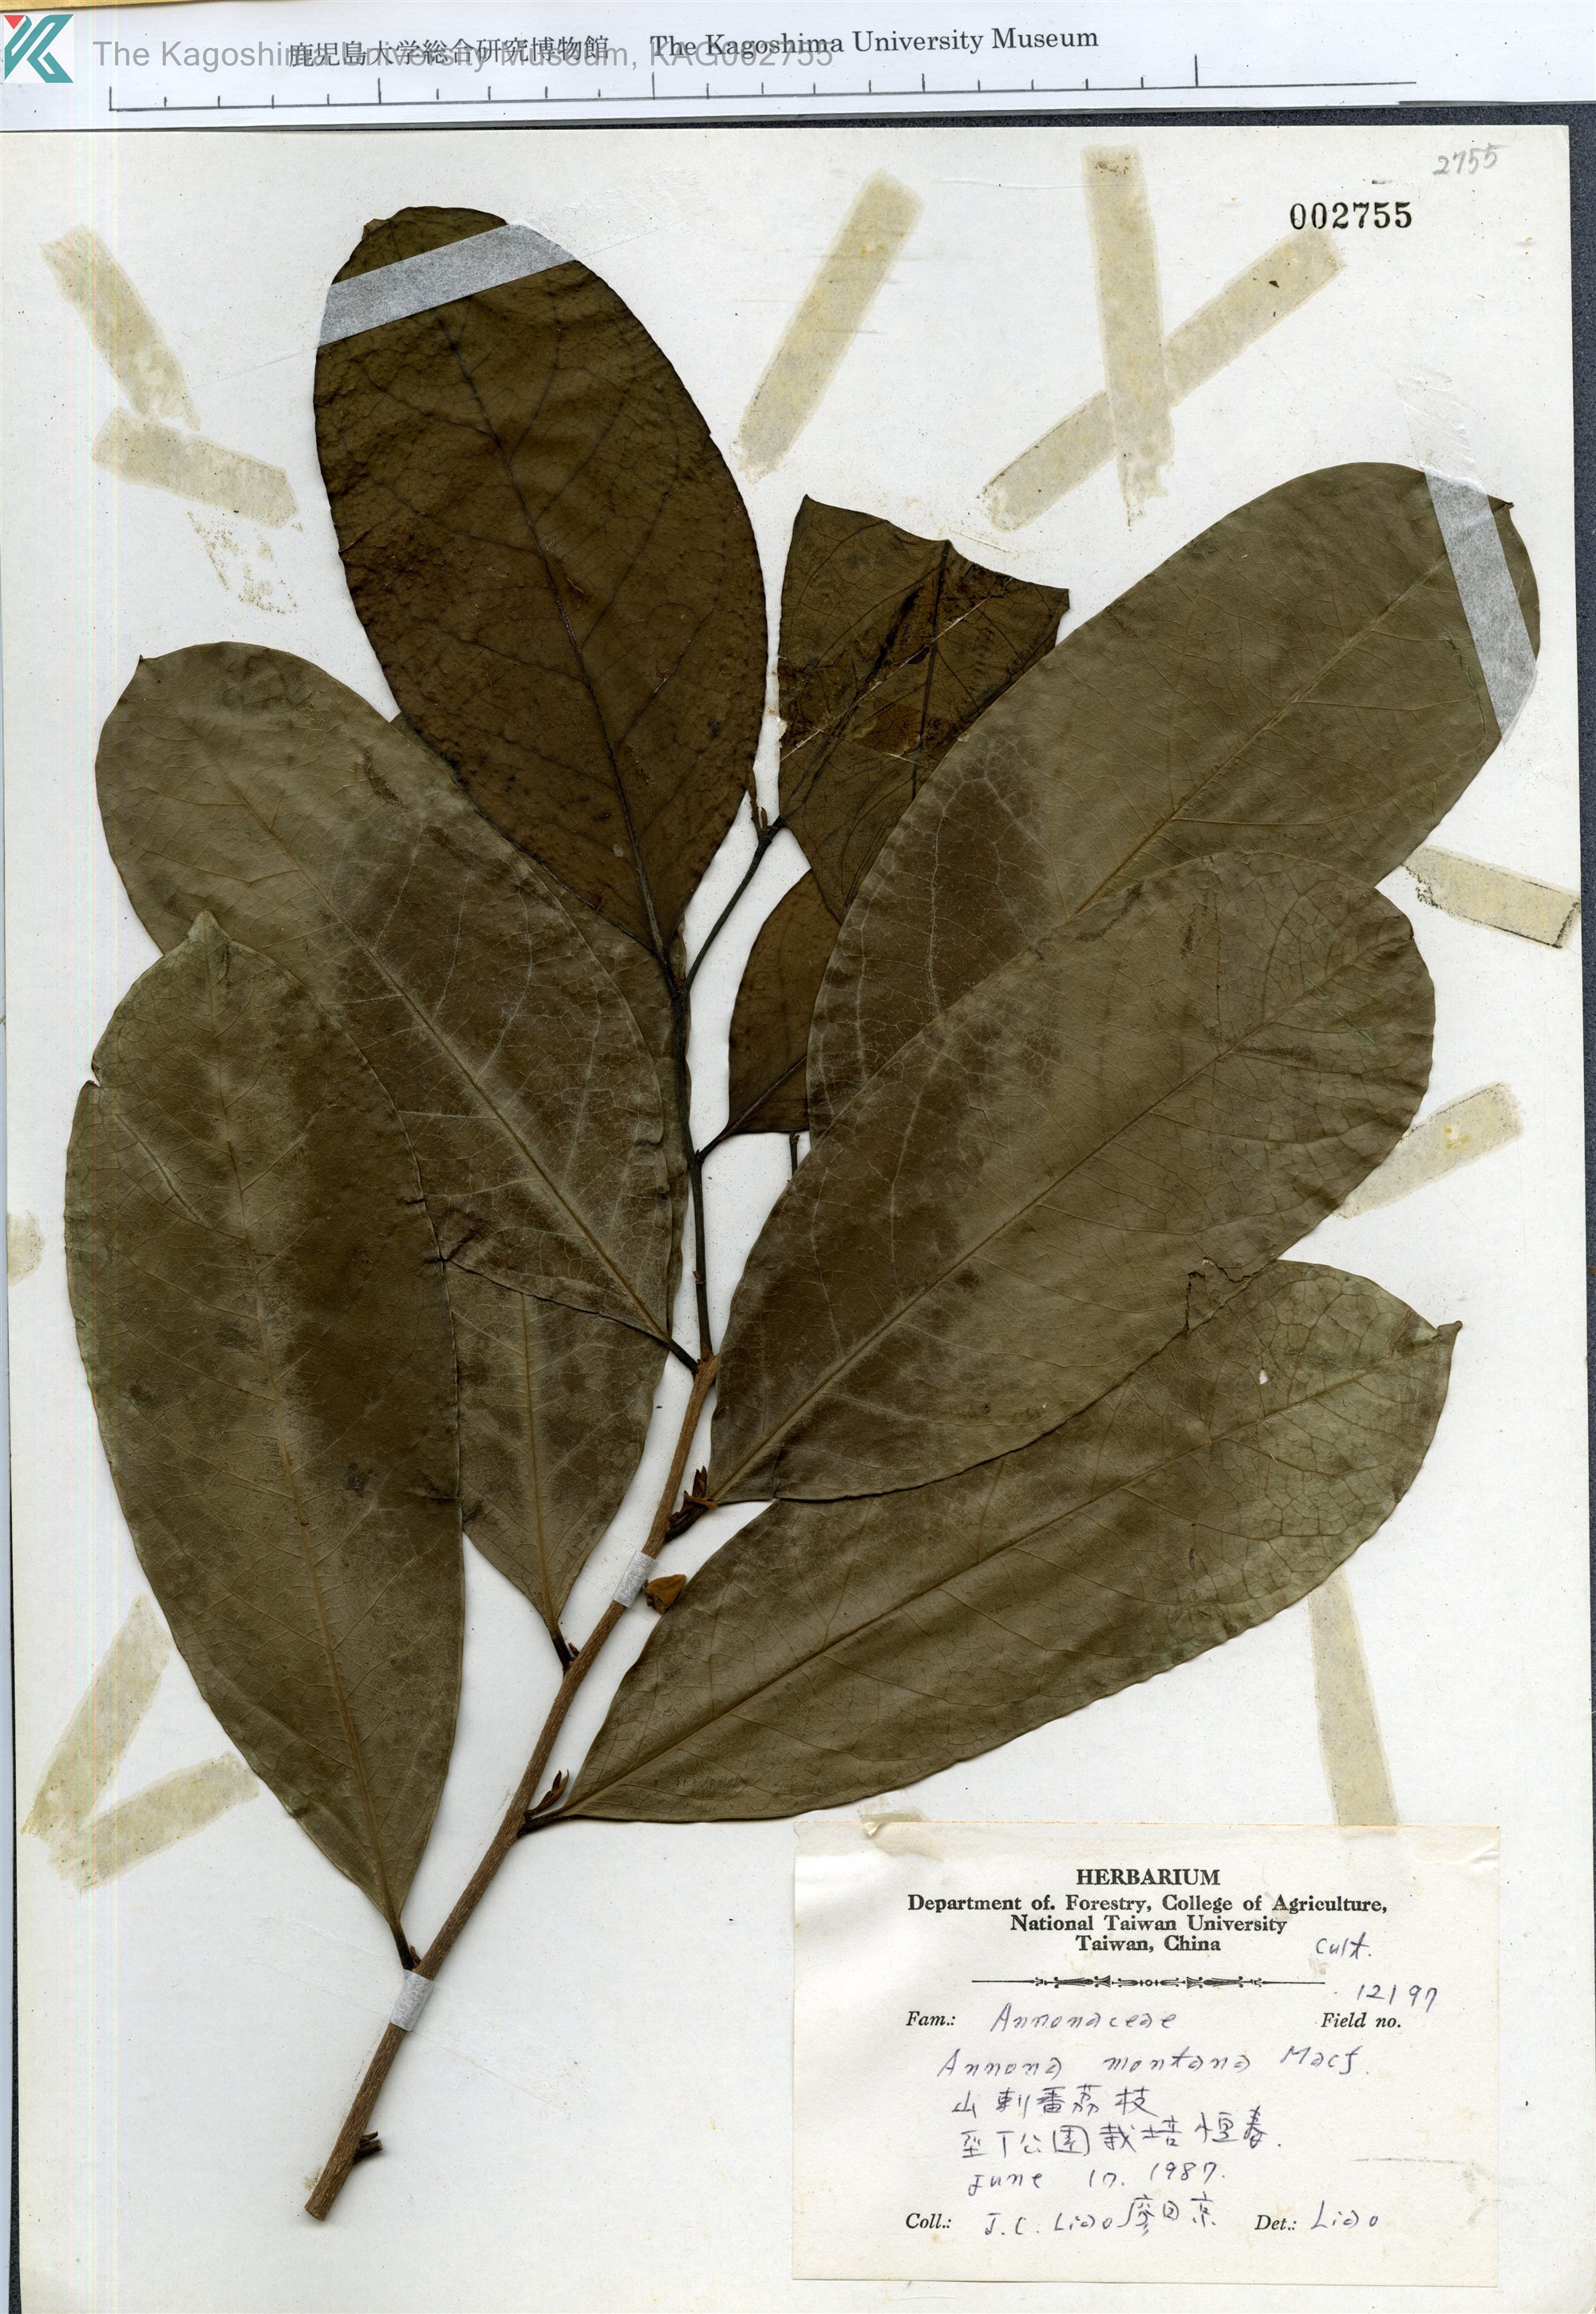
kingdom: Plantae
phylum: Tracheophyta
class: Magnoliopsida
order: Magnoliales
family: Annonaceae
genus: Annona
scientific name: Annona montana
